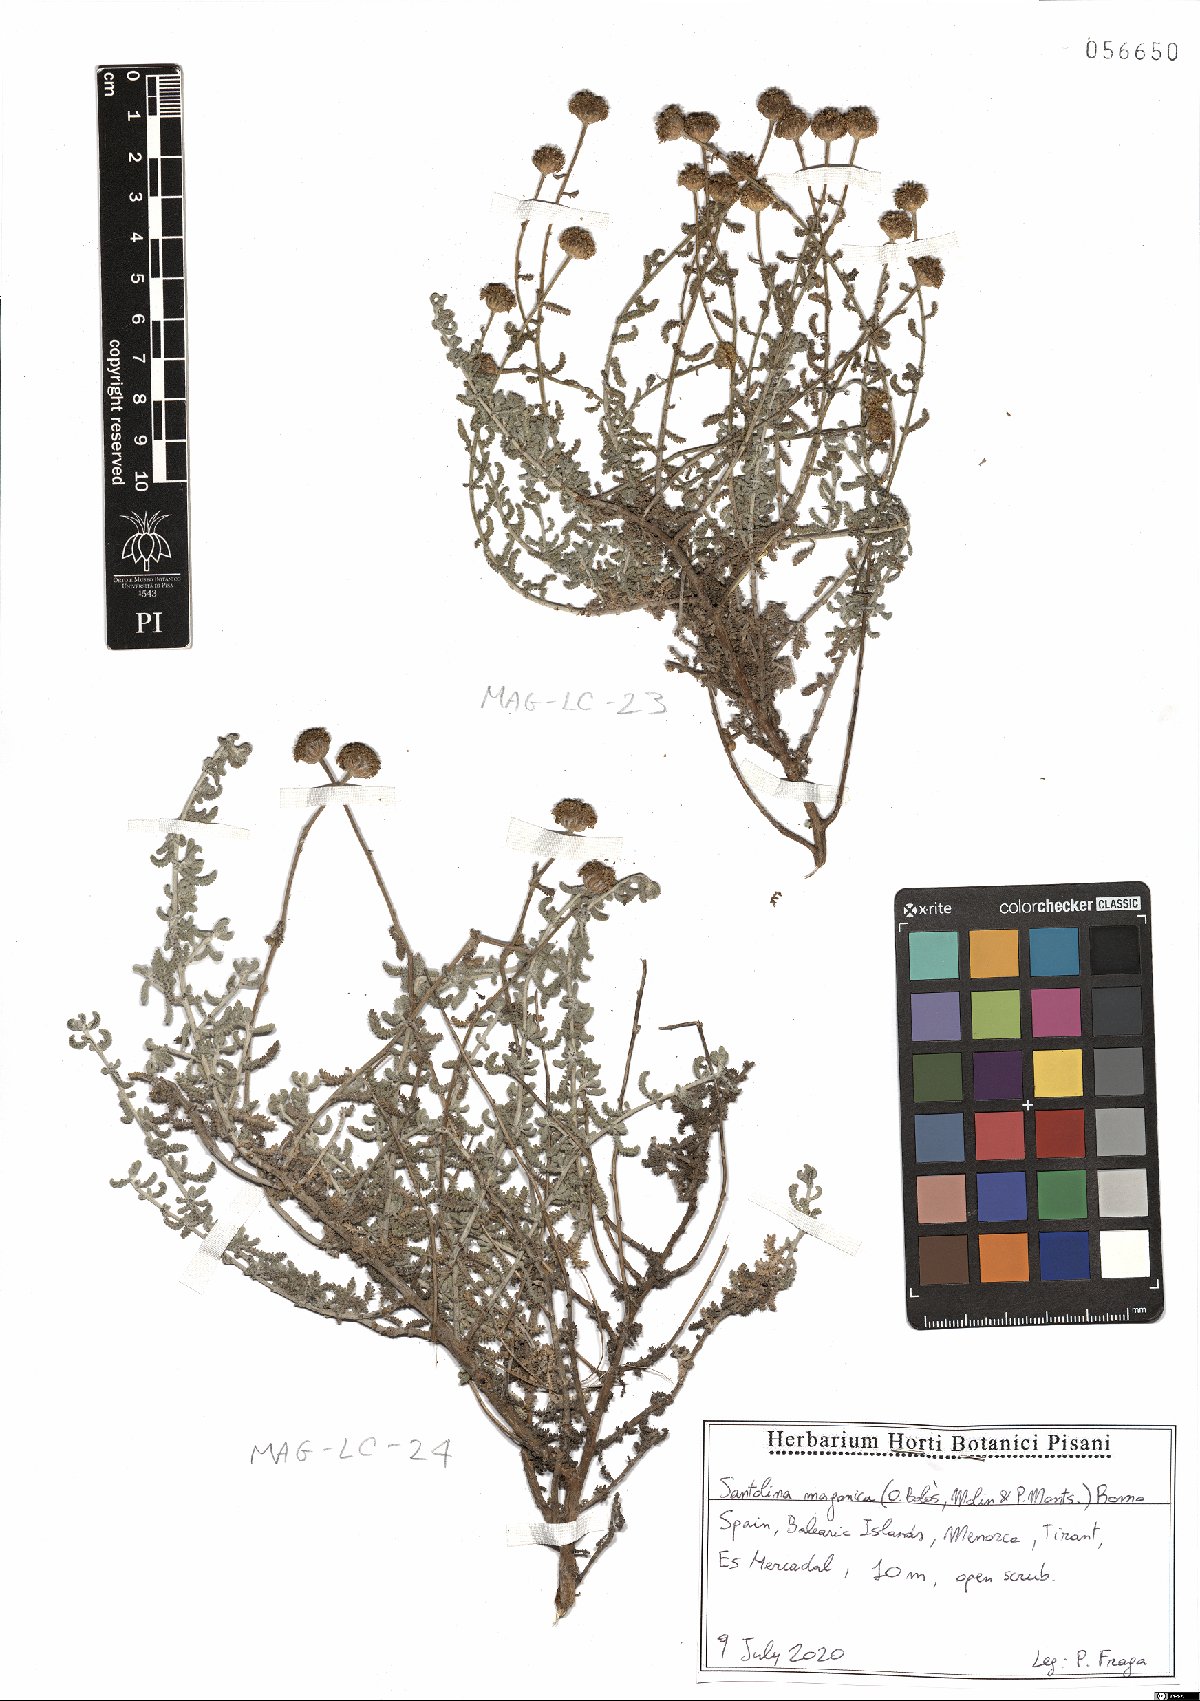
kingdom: Plantae
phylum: Tracheophyta
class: Magnoliopsida
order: Asterales
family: Asteraceae
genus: Santolina
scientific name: Santolina magonica
